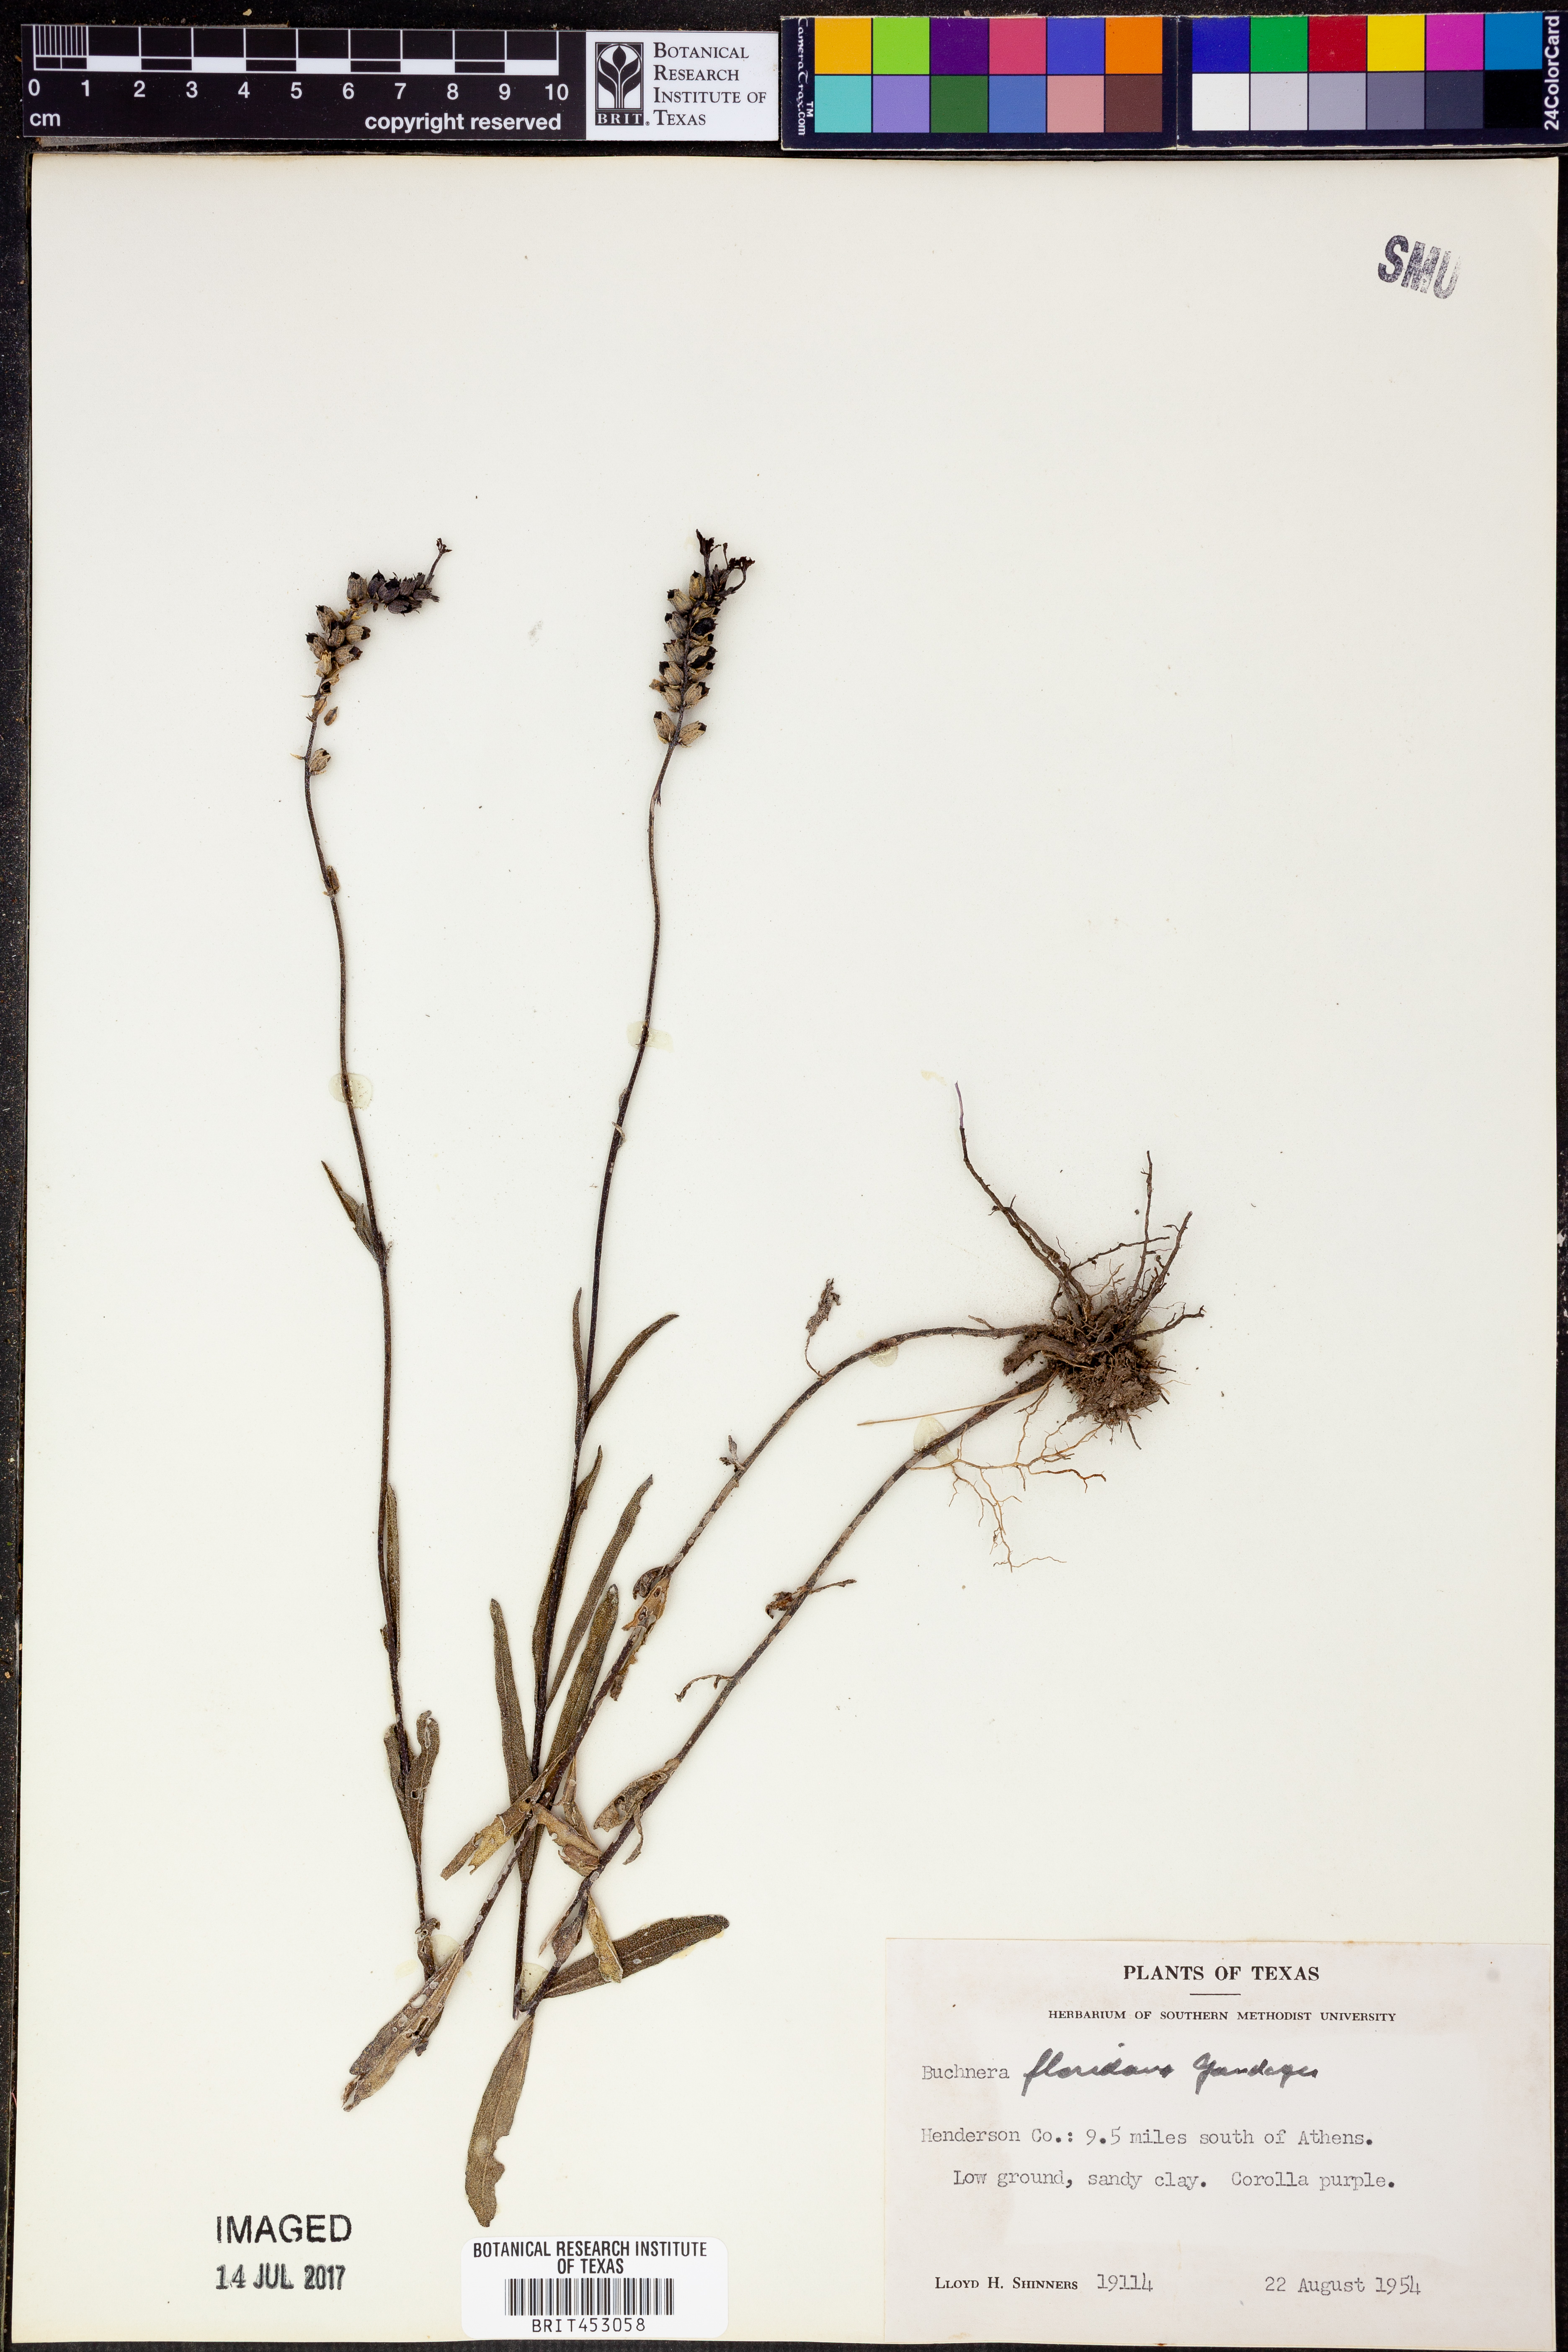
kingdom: Plantae
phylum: Tracheophyta
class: Magnoliopsida
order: Lamiales
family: Orobanchaceae
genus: Buchnera
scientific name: Buchnera floridana
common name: Florida bluehearts
